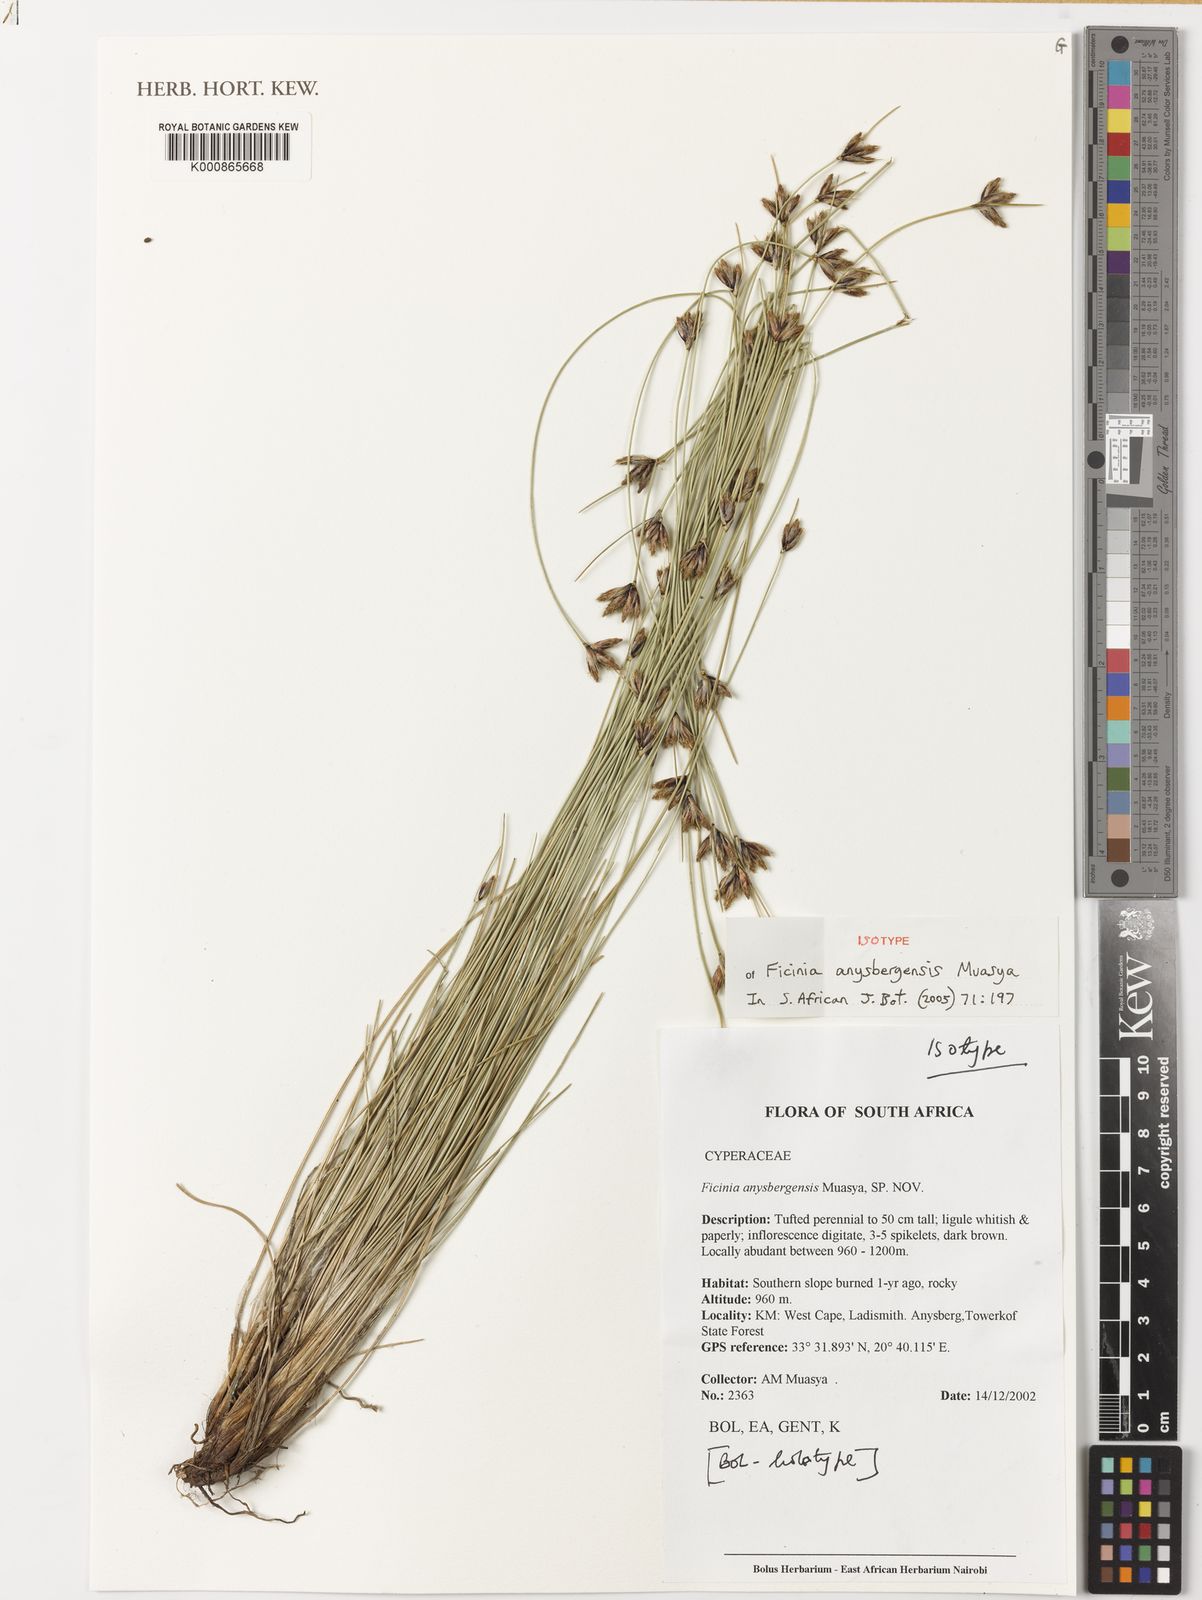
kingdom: Plantae
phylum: Tracheophyta
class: Liliopsida
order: Poales
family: Cyperaceae
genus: Ficinia
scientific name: Ficinia anysbergensis
